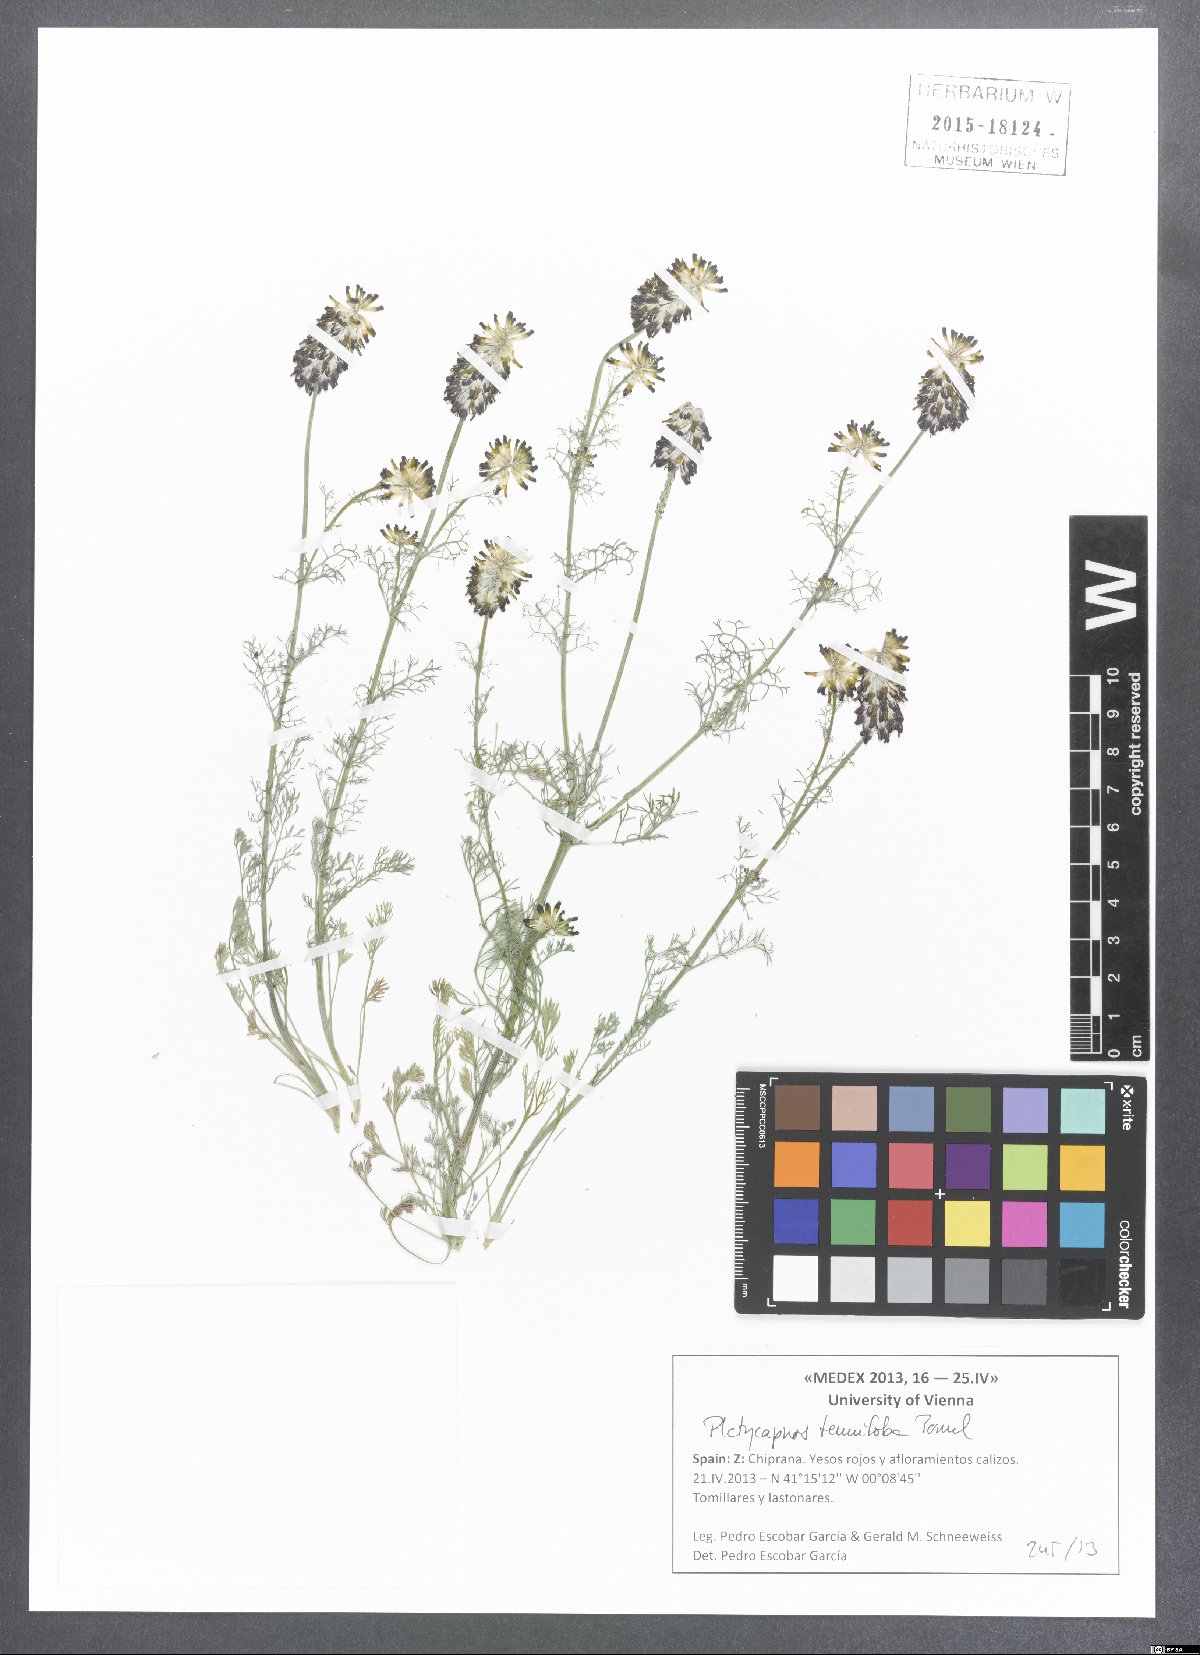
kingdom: Plantae
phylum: Tracheophyta
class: Magnoliopsida
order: Ranunculales
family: Papaveraceae
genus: Platycapnos
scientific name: Platycapnos tenuiloba
